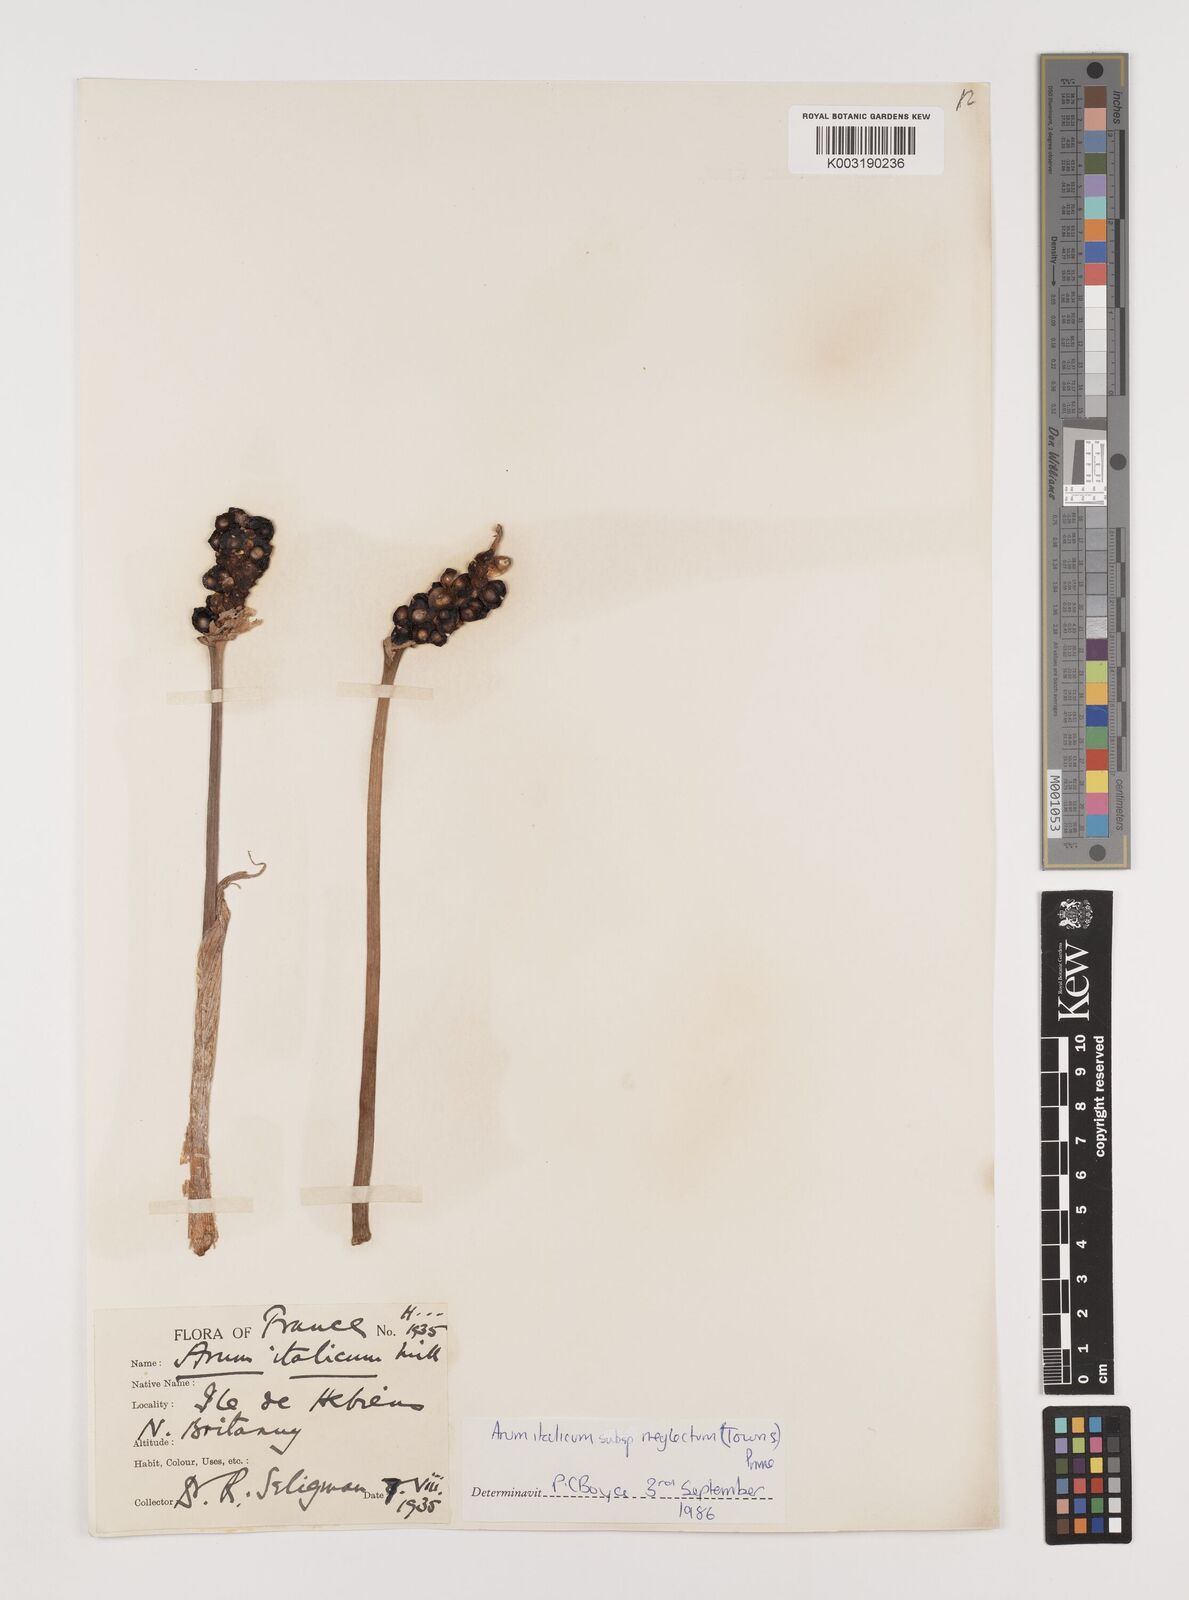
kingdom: Plantae
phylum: Tracheophyta
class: Liliopsida
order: Alismatales
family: Araceae
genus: Arum
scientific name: Arum italicum
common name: Italian lords-and-ladies
